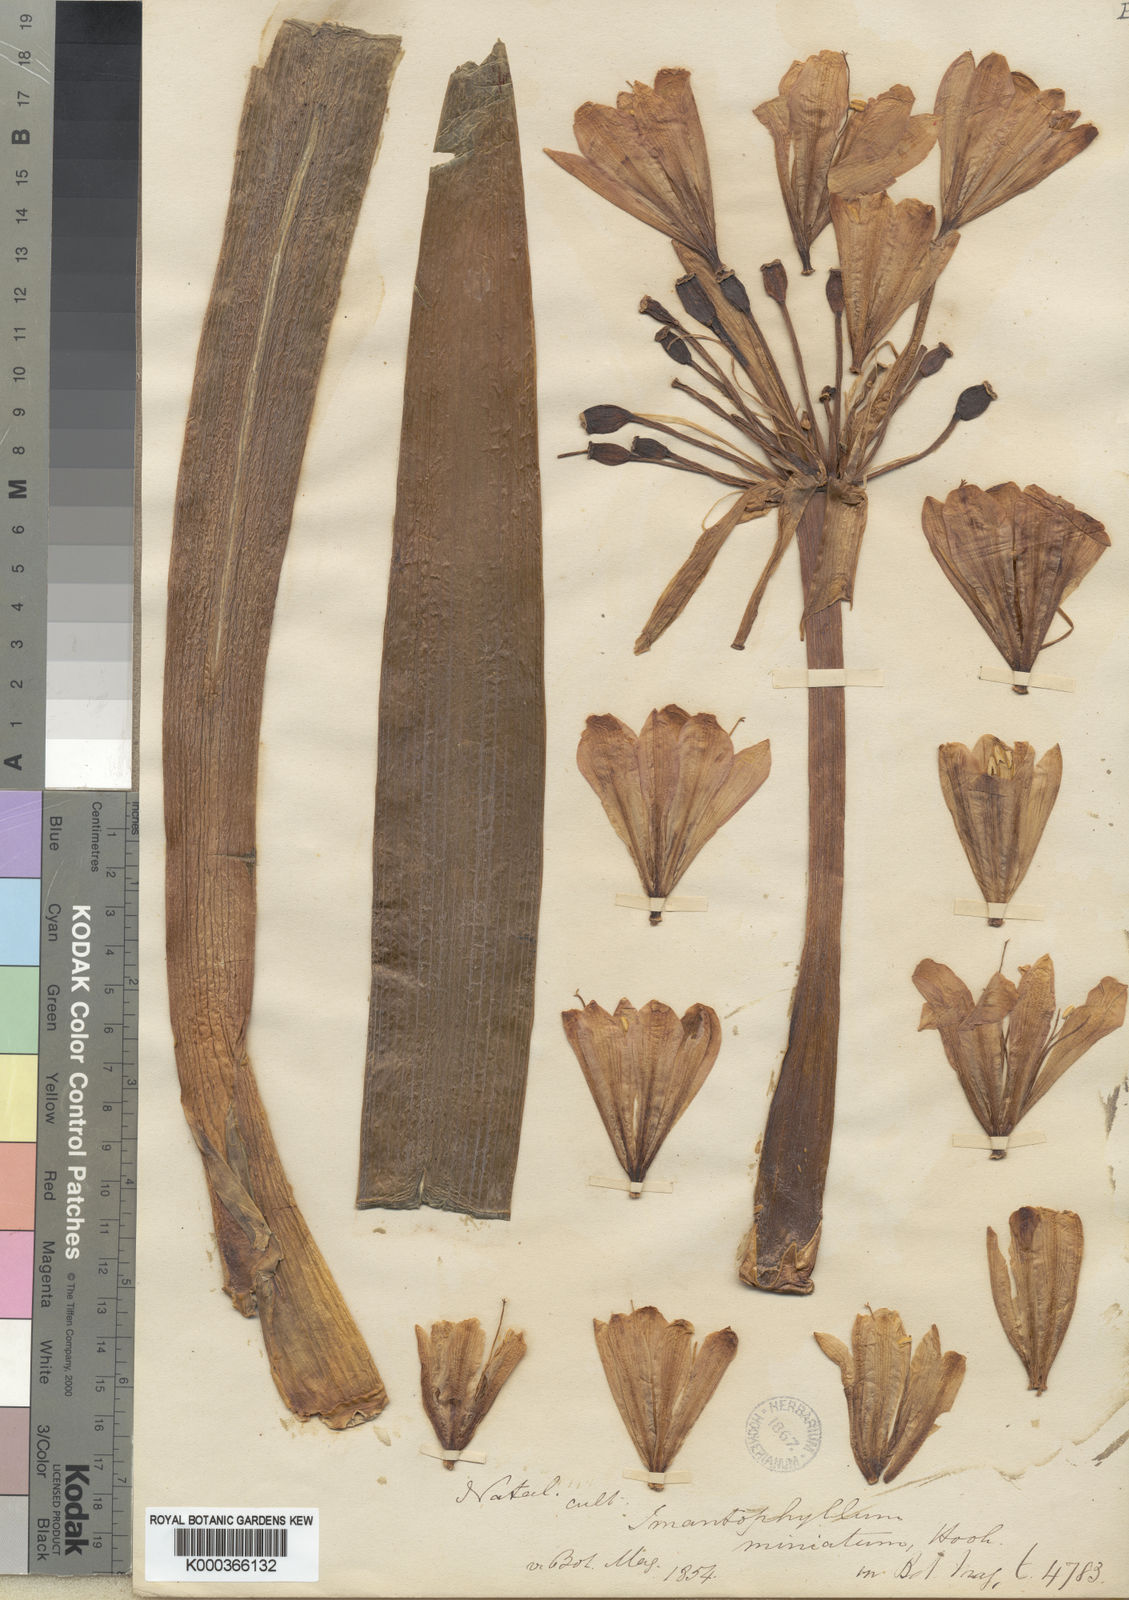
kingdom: Plantae
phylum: Tracheophyta
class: Liliopsida
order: Asparagales
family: Amaryllidaceae
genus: Clivia
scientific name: Clivia
